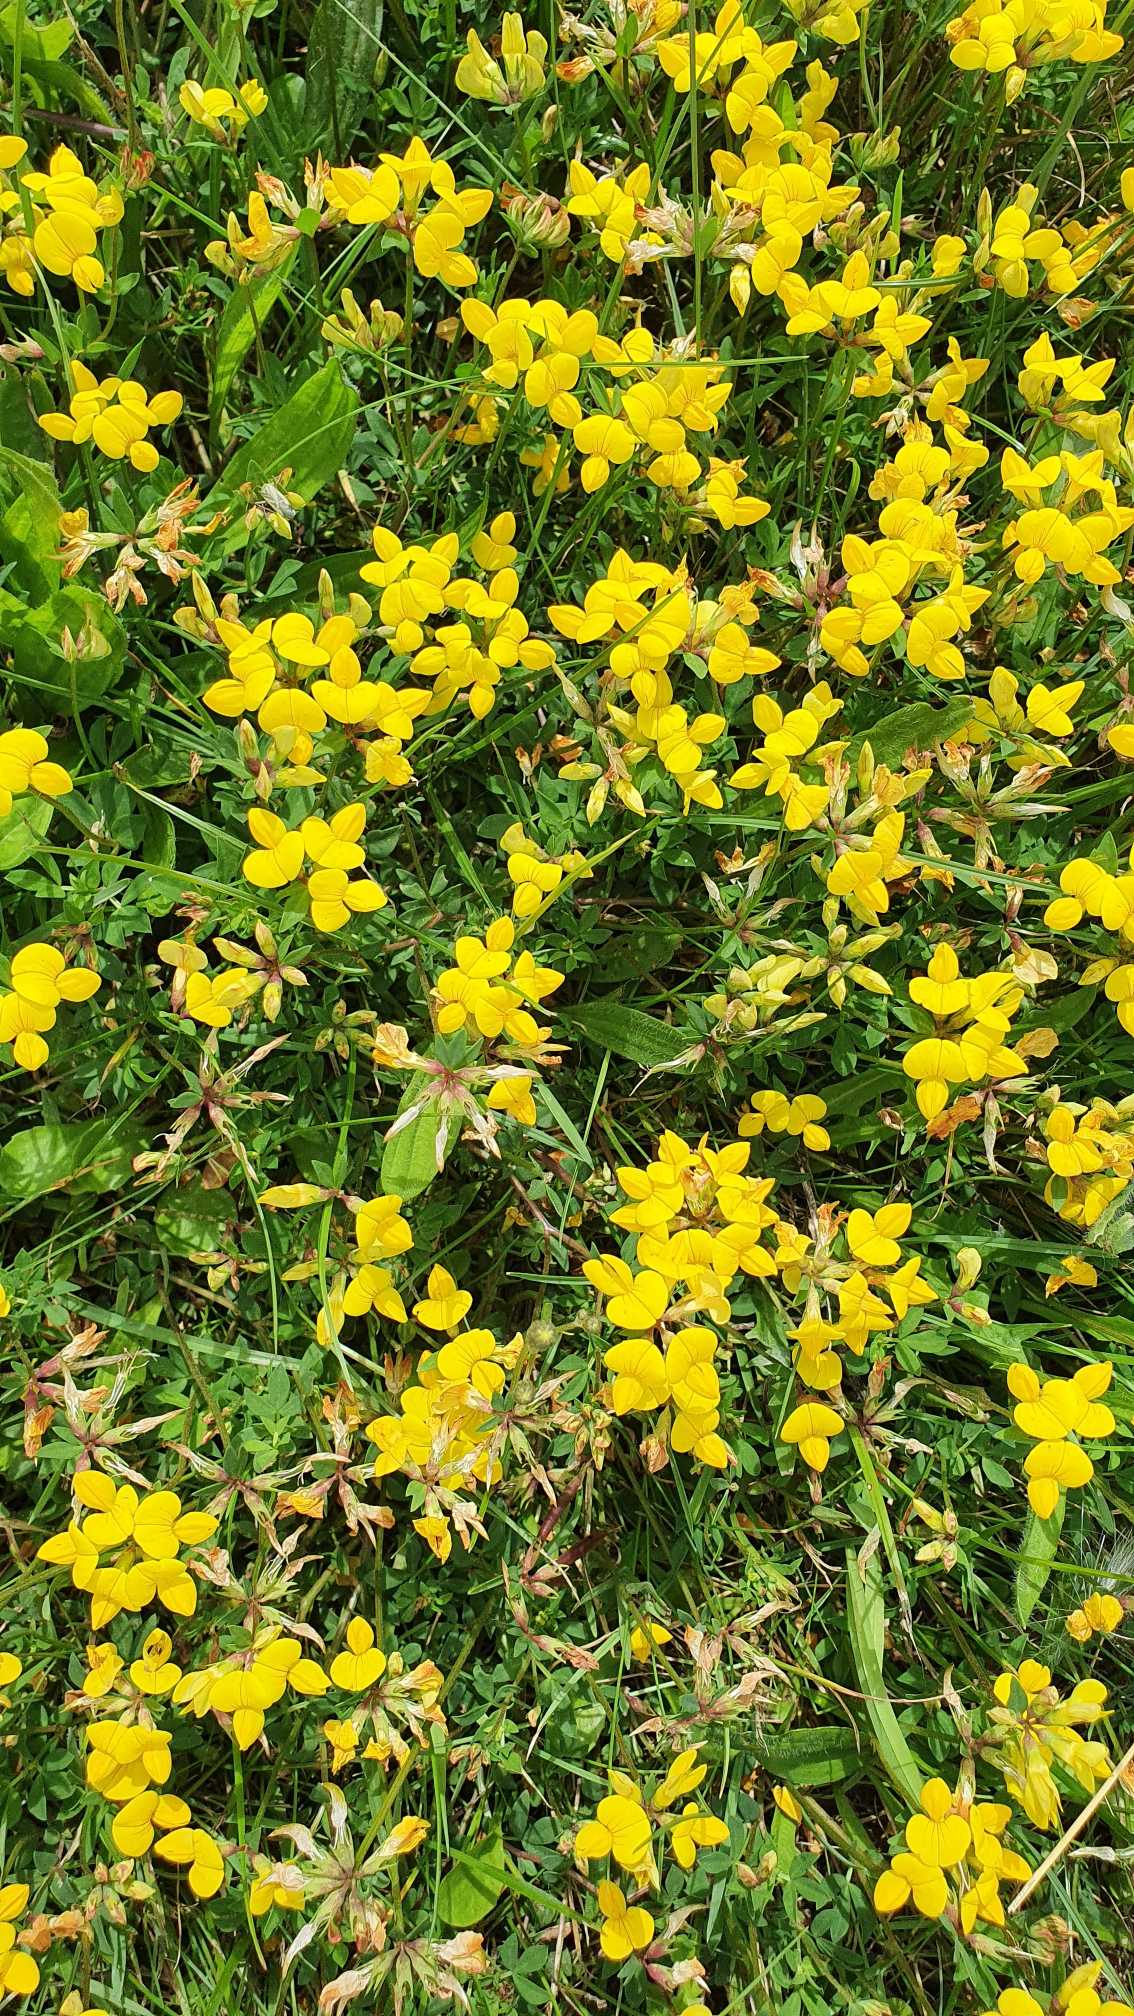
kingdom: Plantae
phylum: Tracheophyta
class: Magnoliopsida
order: Fabales
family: Fabaceae
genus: Lotus
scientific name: Lotus corniculatus
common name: Almindelig kællingetand
